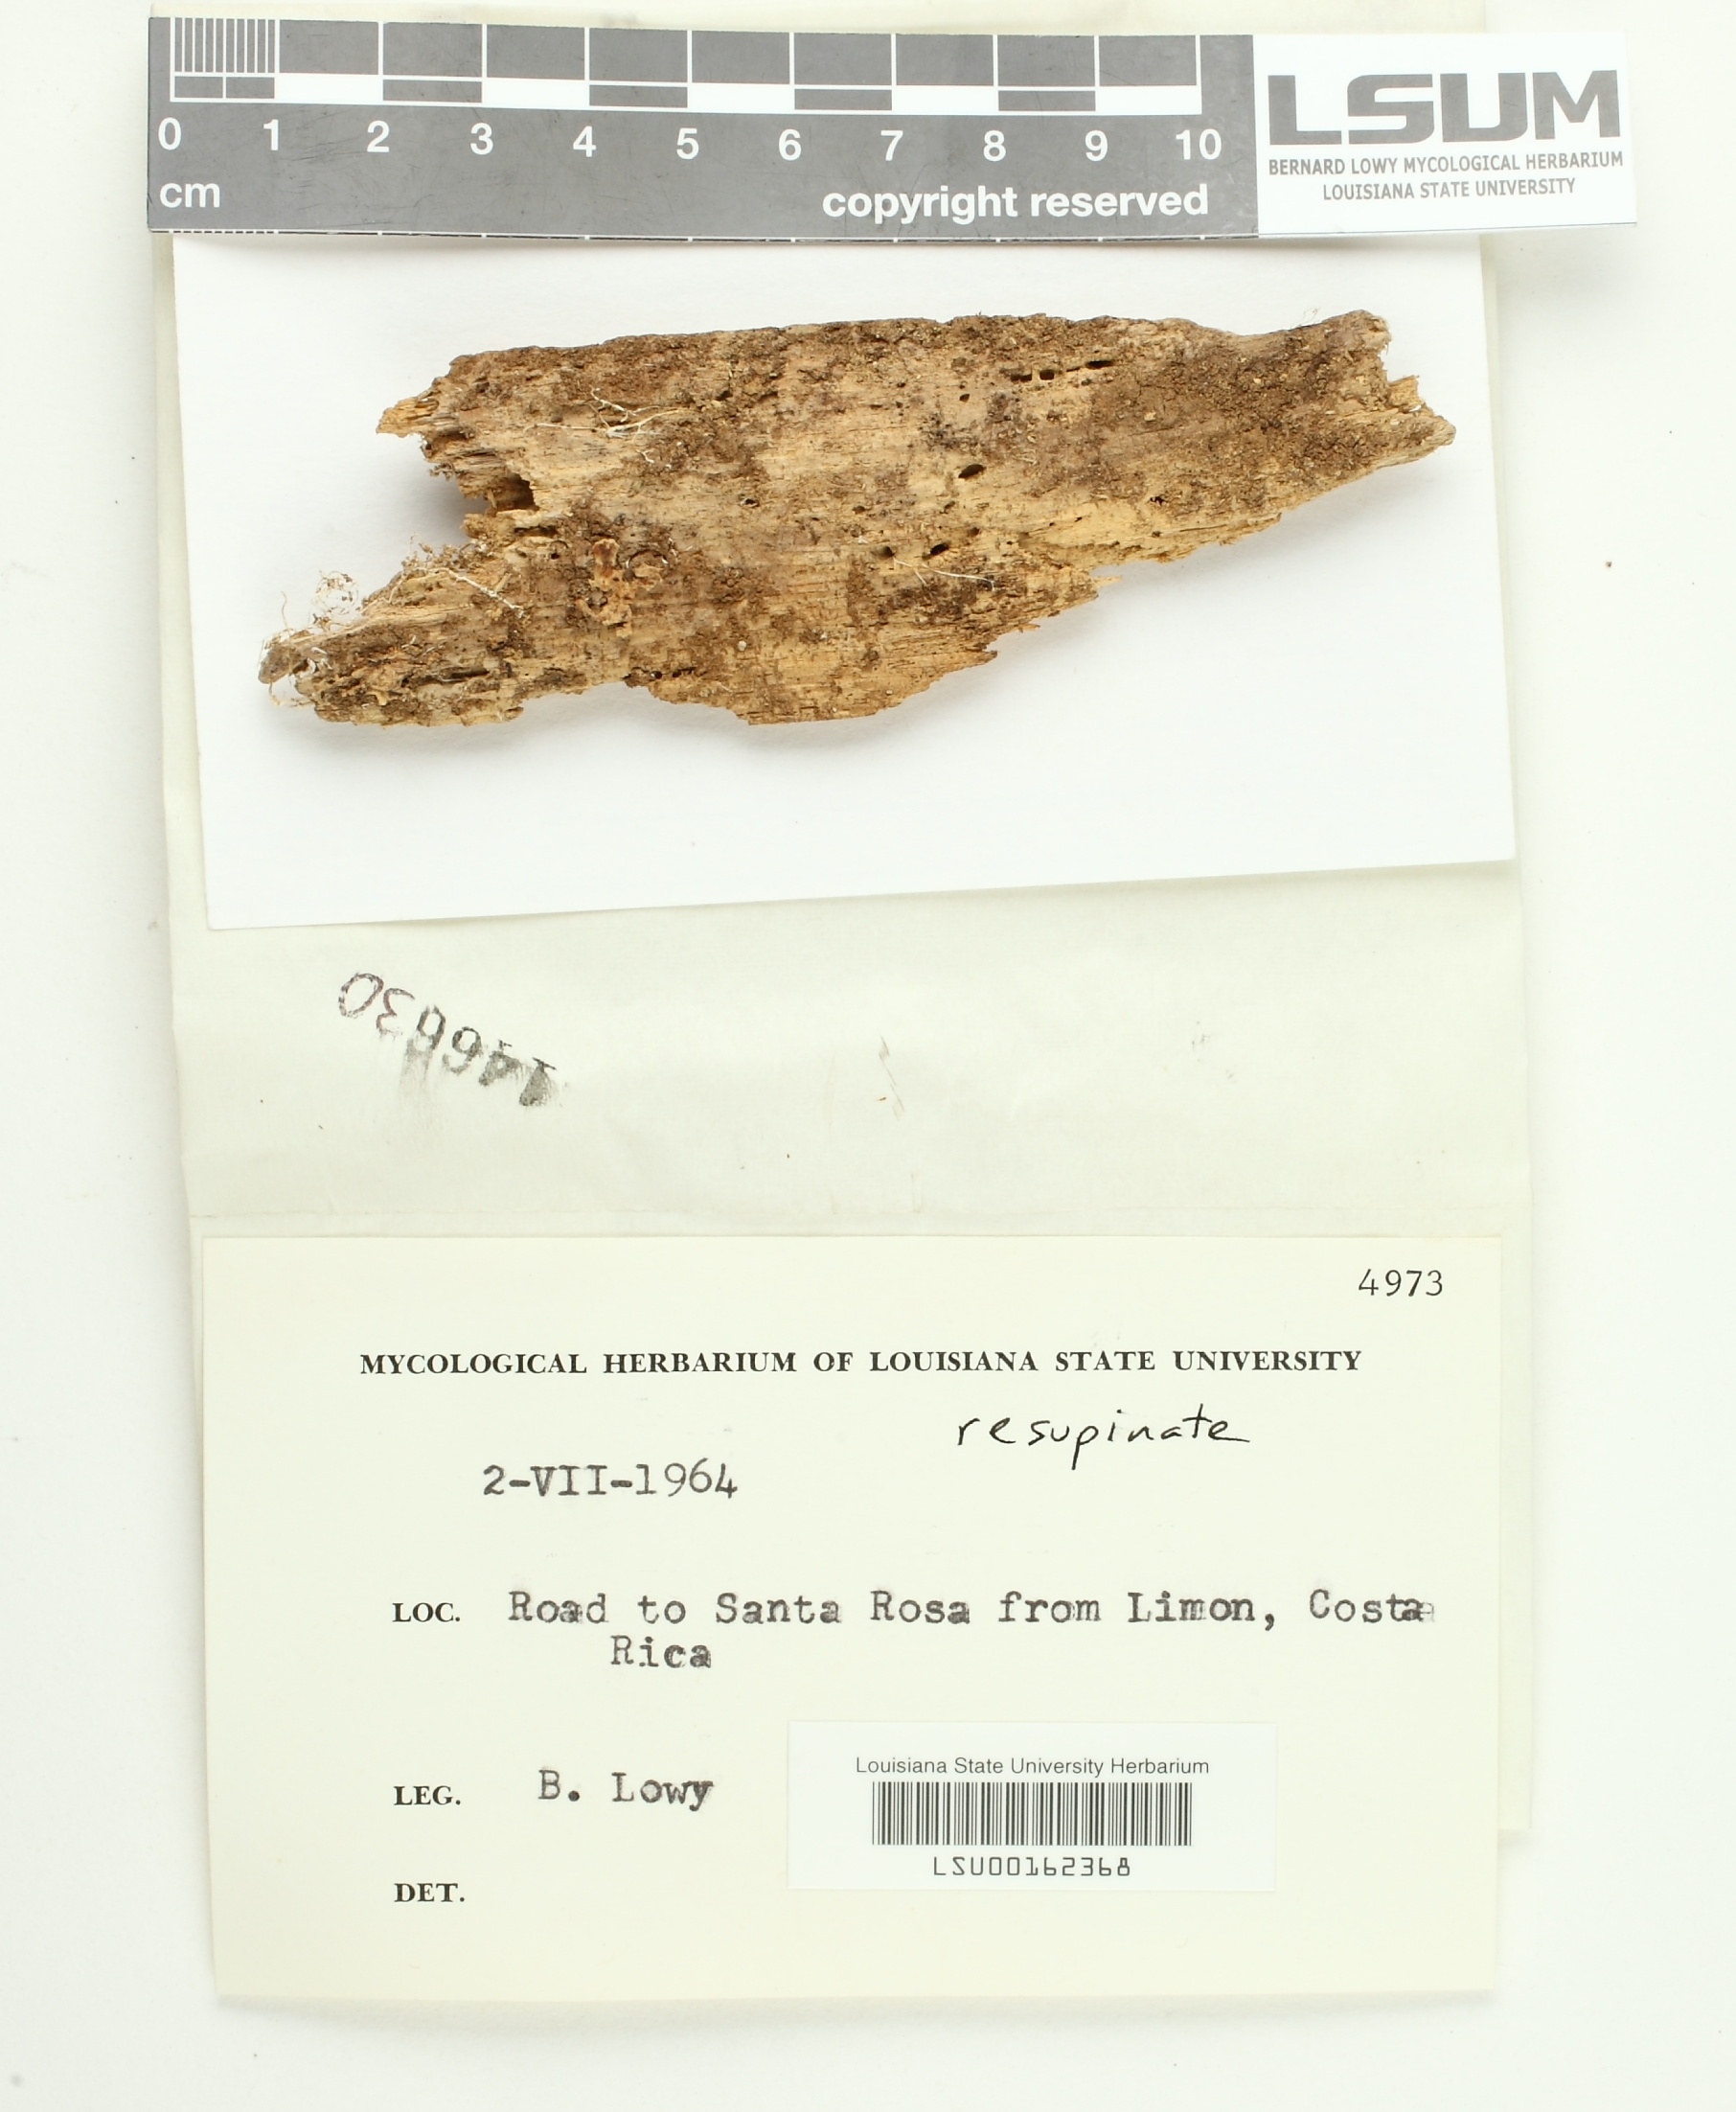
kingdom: Fungi
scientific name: Fungi
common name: Fungi
